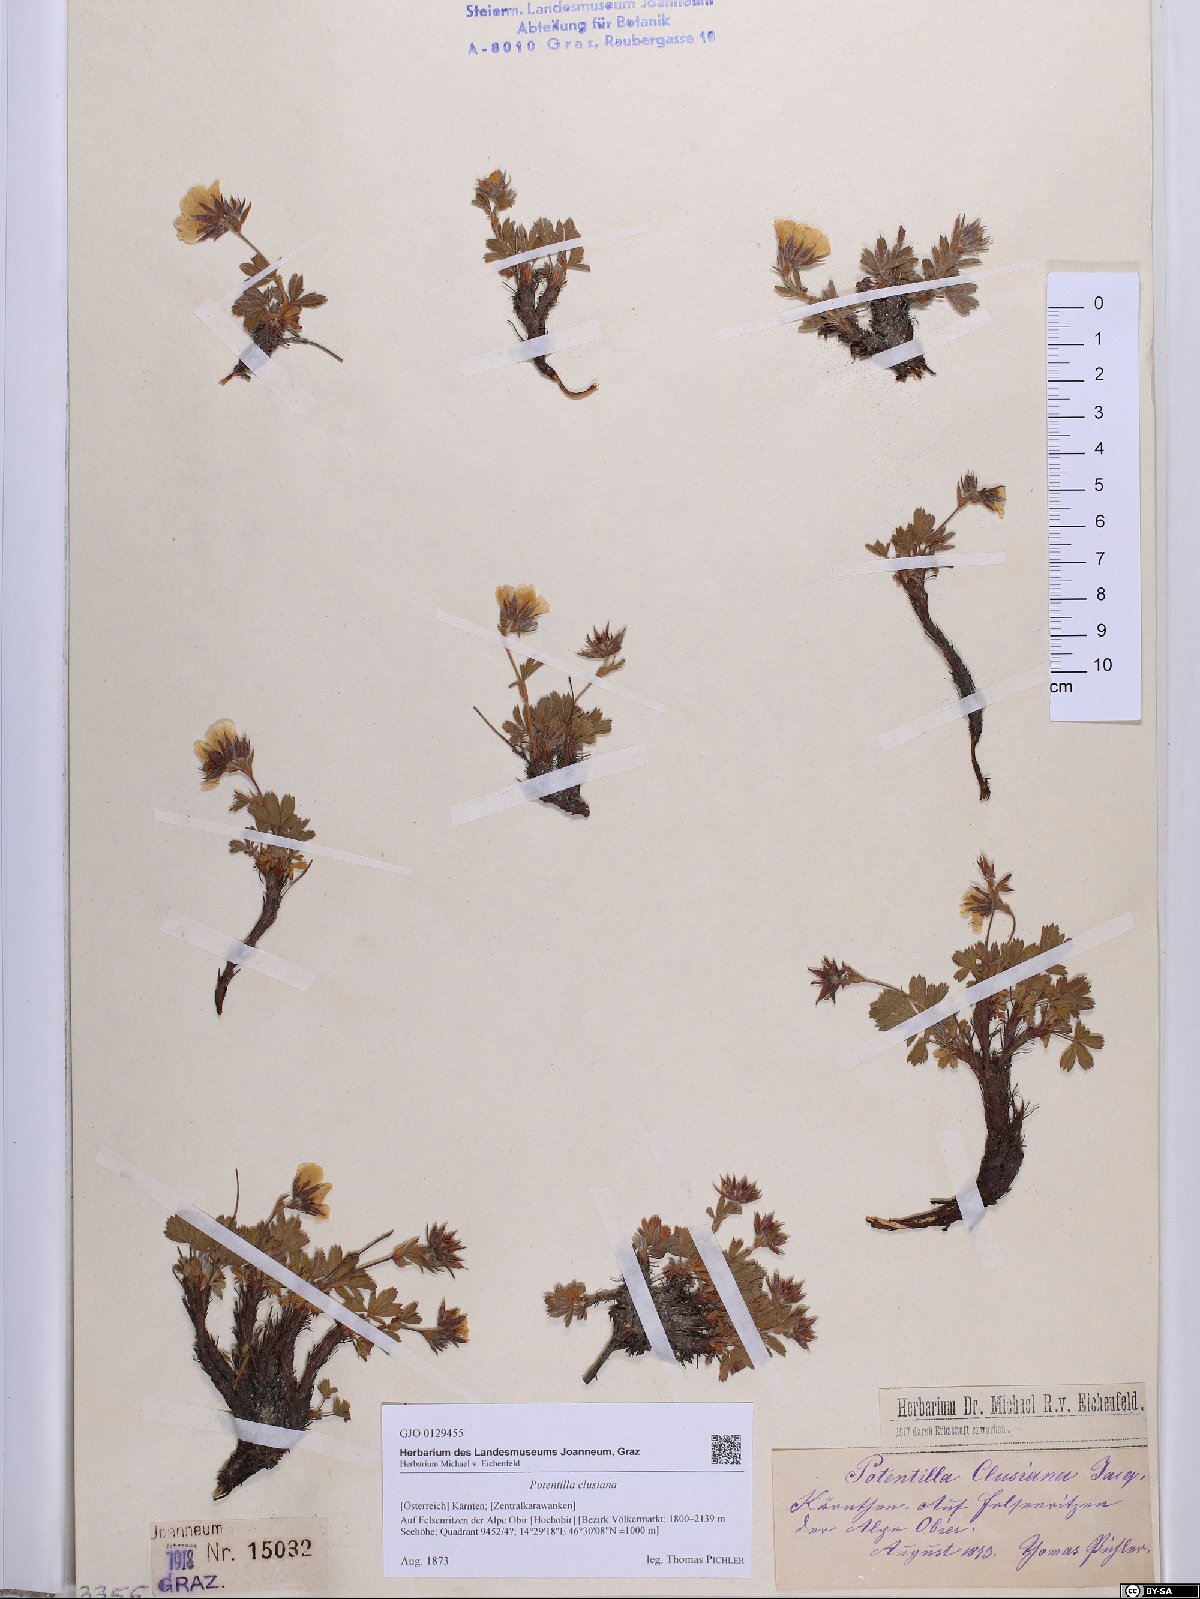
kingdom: Plantae
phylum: Tracheophyta
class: Magnoliopsida
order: Rosales
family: Rosaceae
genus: Potentilla
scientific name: Potentilla clusiana
